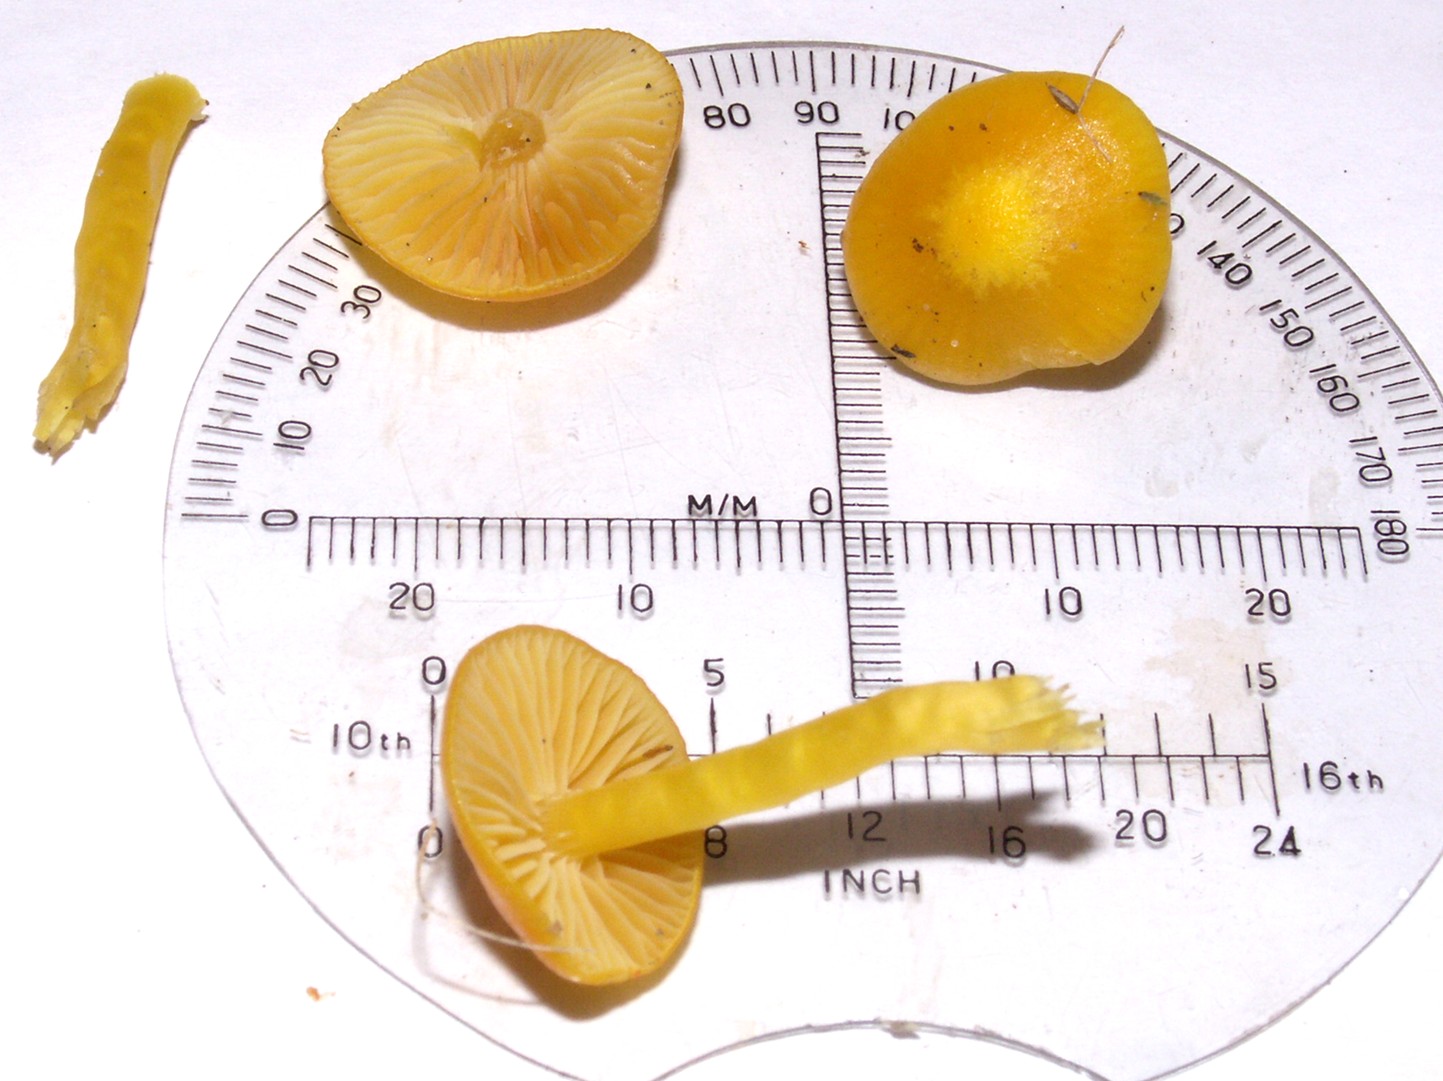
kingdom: Fungi
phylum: Basidiomycota
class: Agaricomycetes
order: Agaricales
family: Hygrophoraceae
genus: Hygrocybe
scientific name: Hygrocybe chlorophana
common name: gul vokshat
